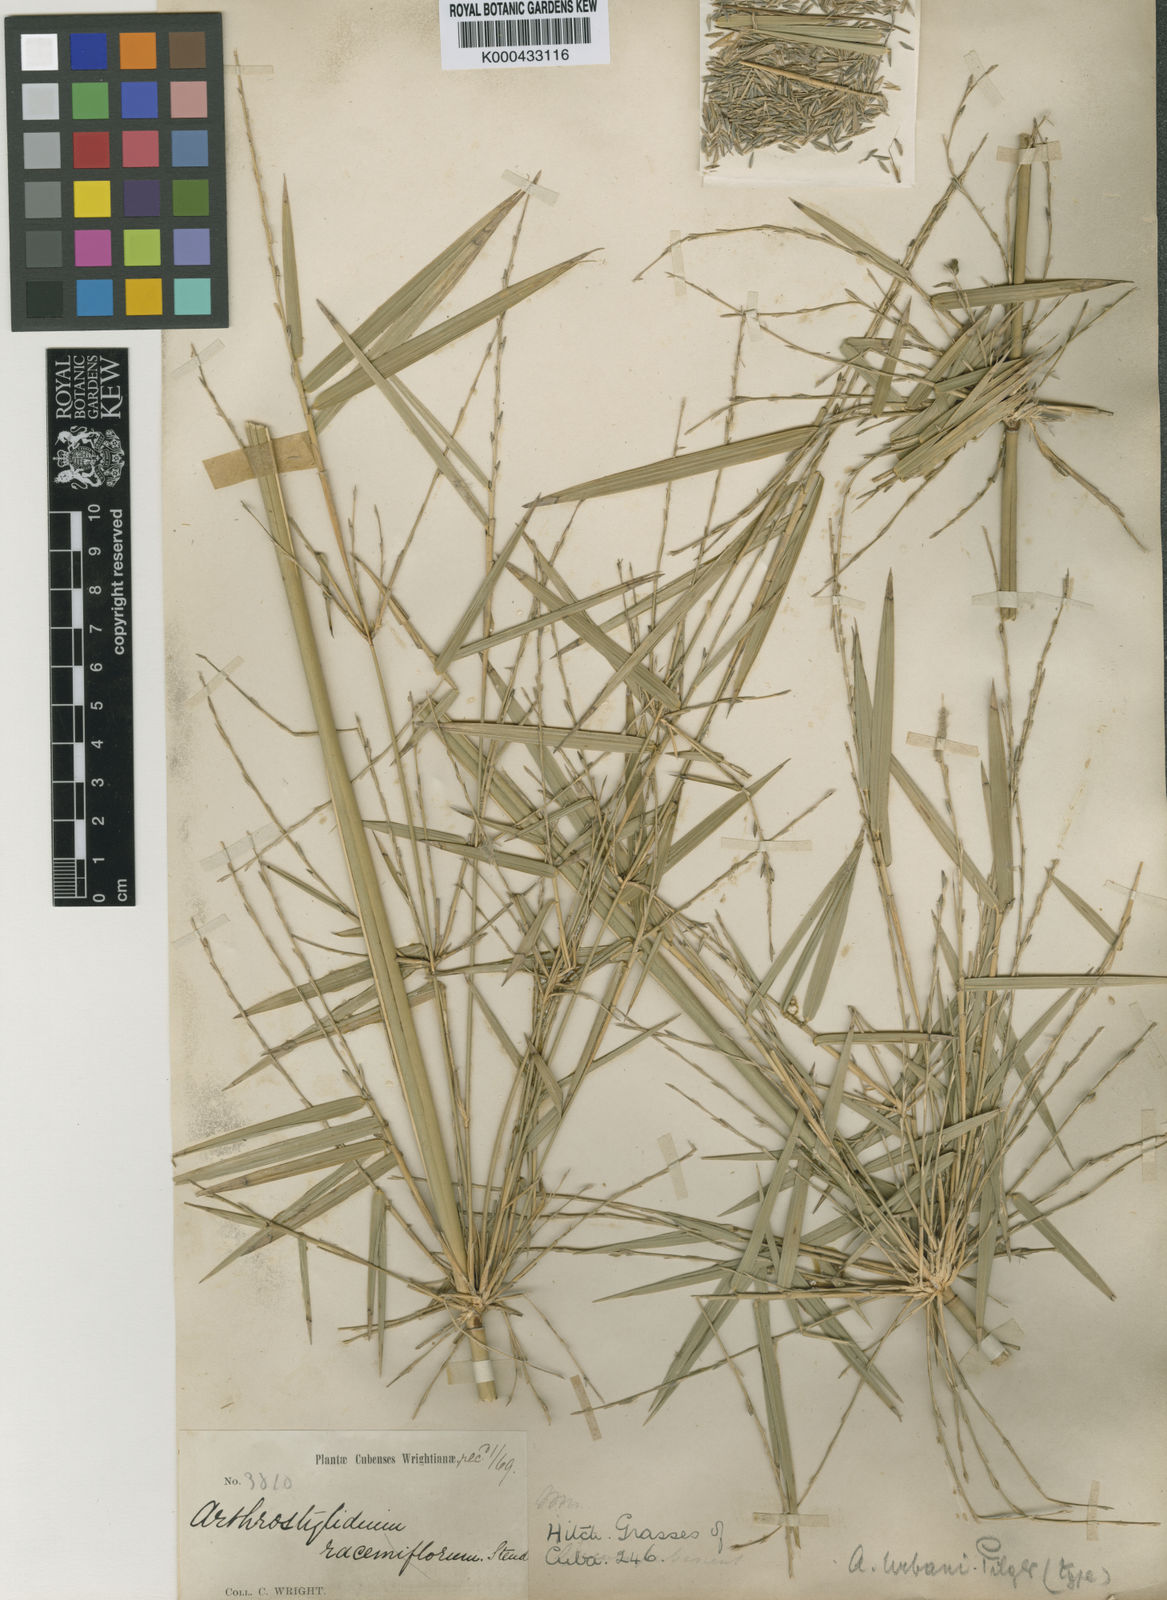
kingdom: Plantae
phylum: Tracheophyta
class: Liliopsida
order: Poales
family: Poaceae
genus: Arthrostylidium
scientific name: Arthrostylidium urbanii
